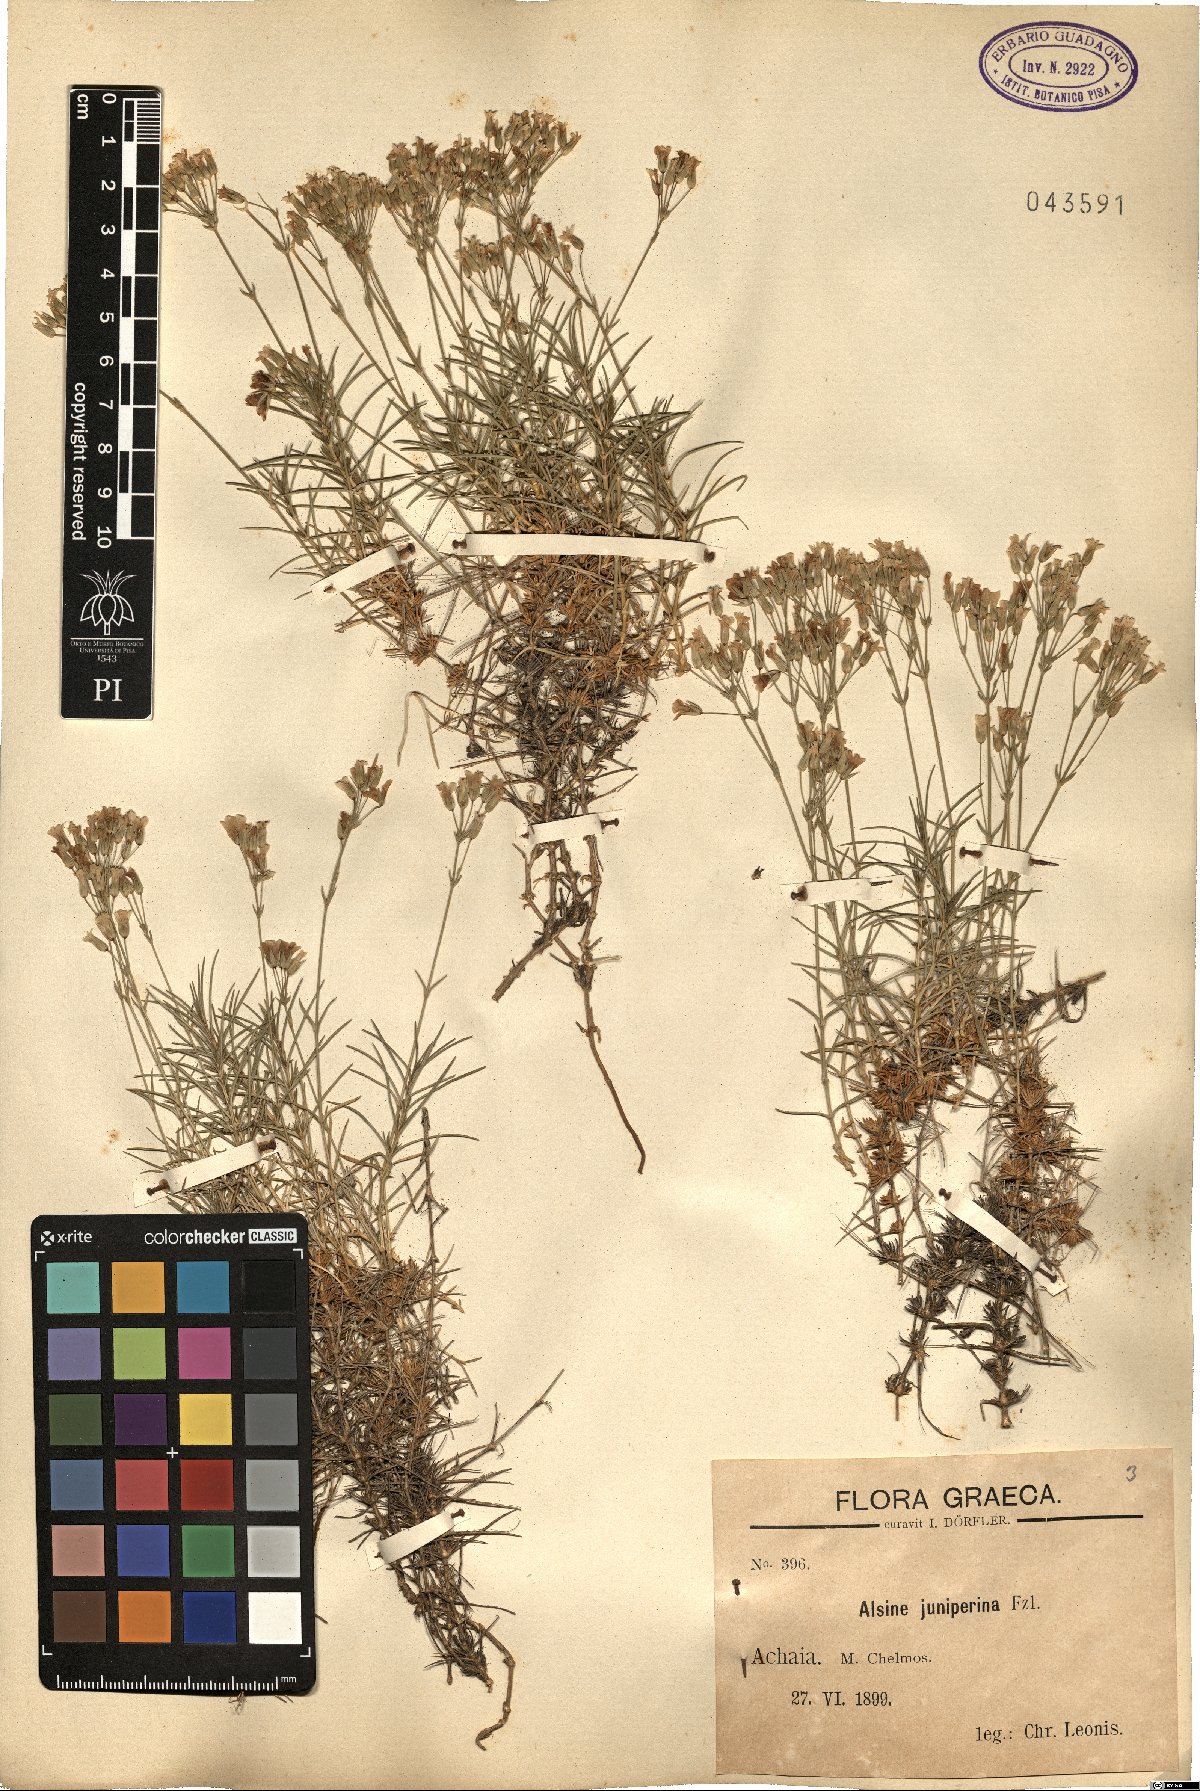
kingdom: Plantae
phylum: Tracheophyta
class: Magnoliopsida
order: Caryophyllales
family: Caryophyllaceae
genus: Sabulina
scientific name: Sabulina juniperina
